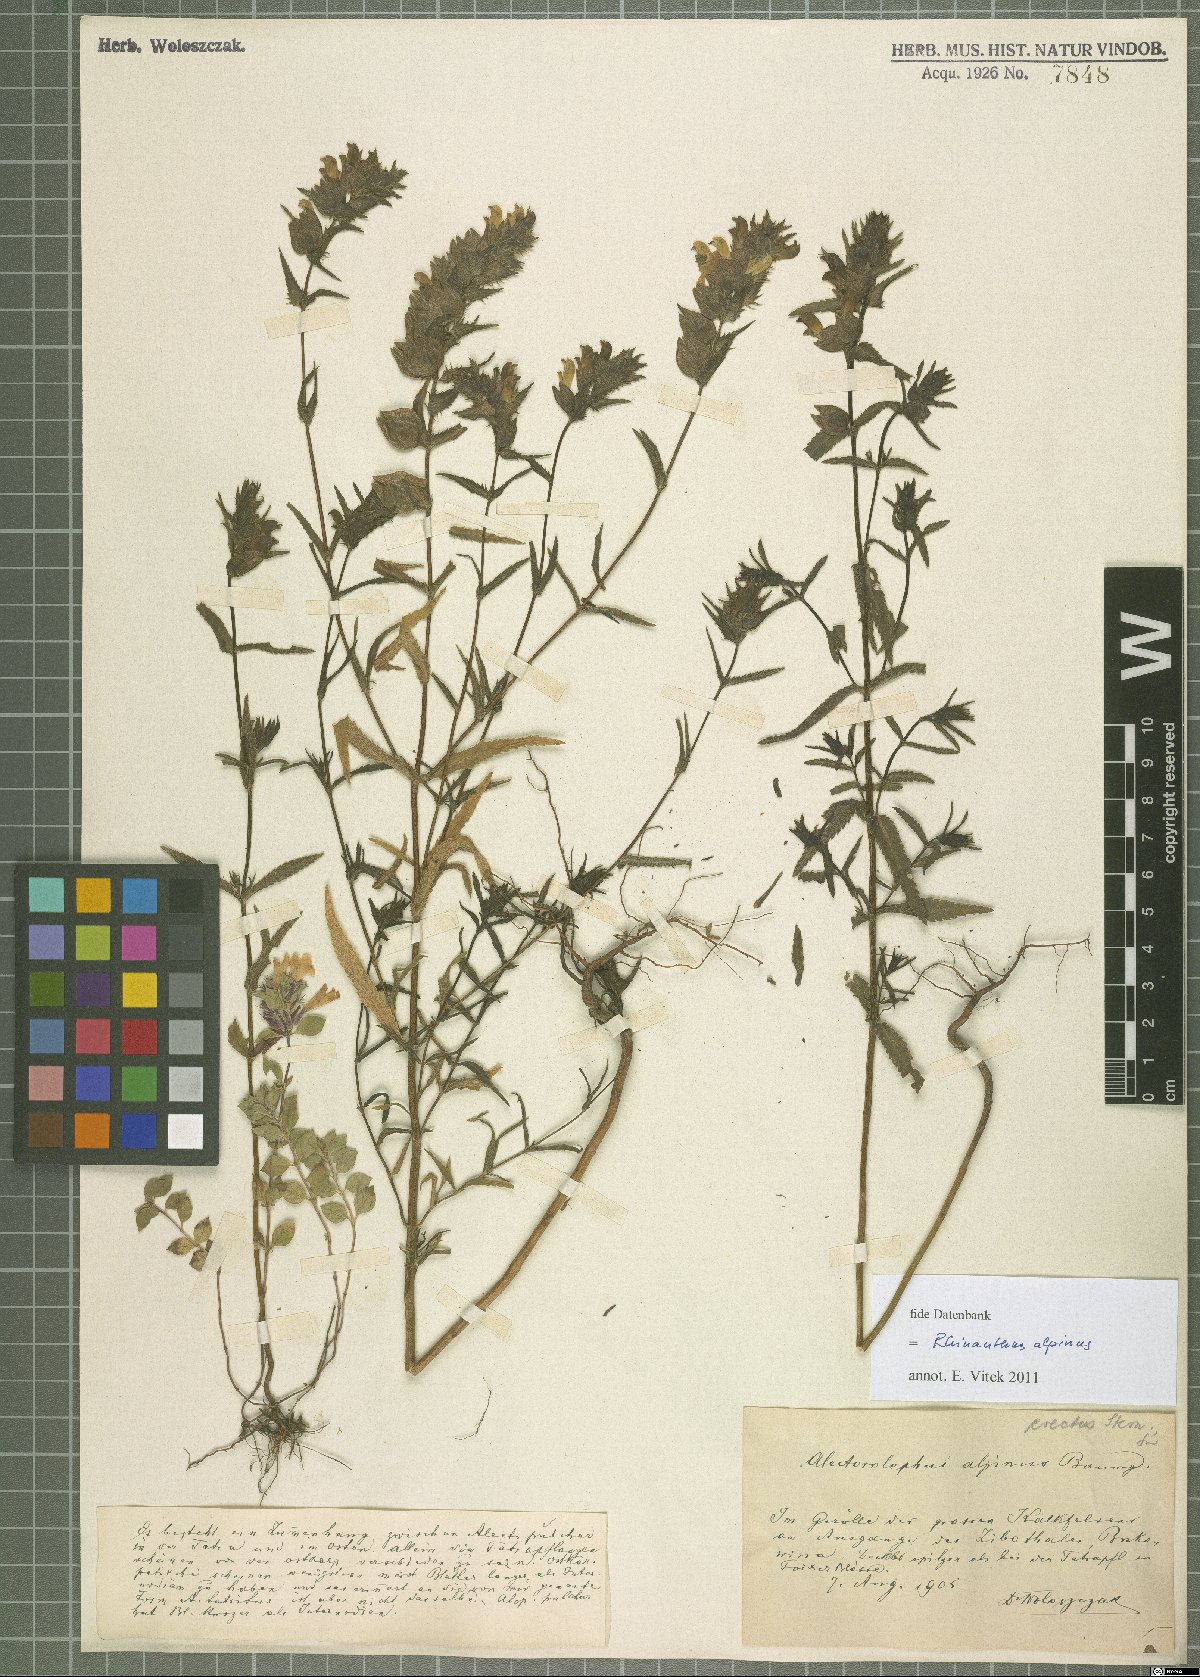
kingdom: Plantae
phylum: Tracheophyta
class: Magnoliopsida
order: Lamiales
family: Orobanchaceae
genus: Rhinanthus
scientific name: Rhinanthus riphaeus
